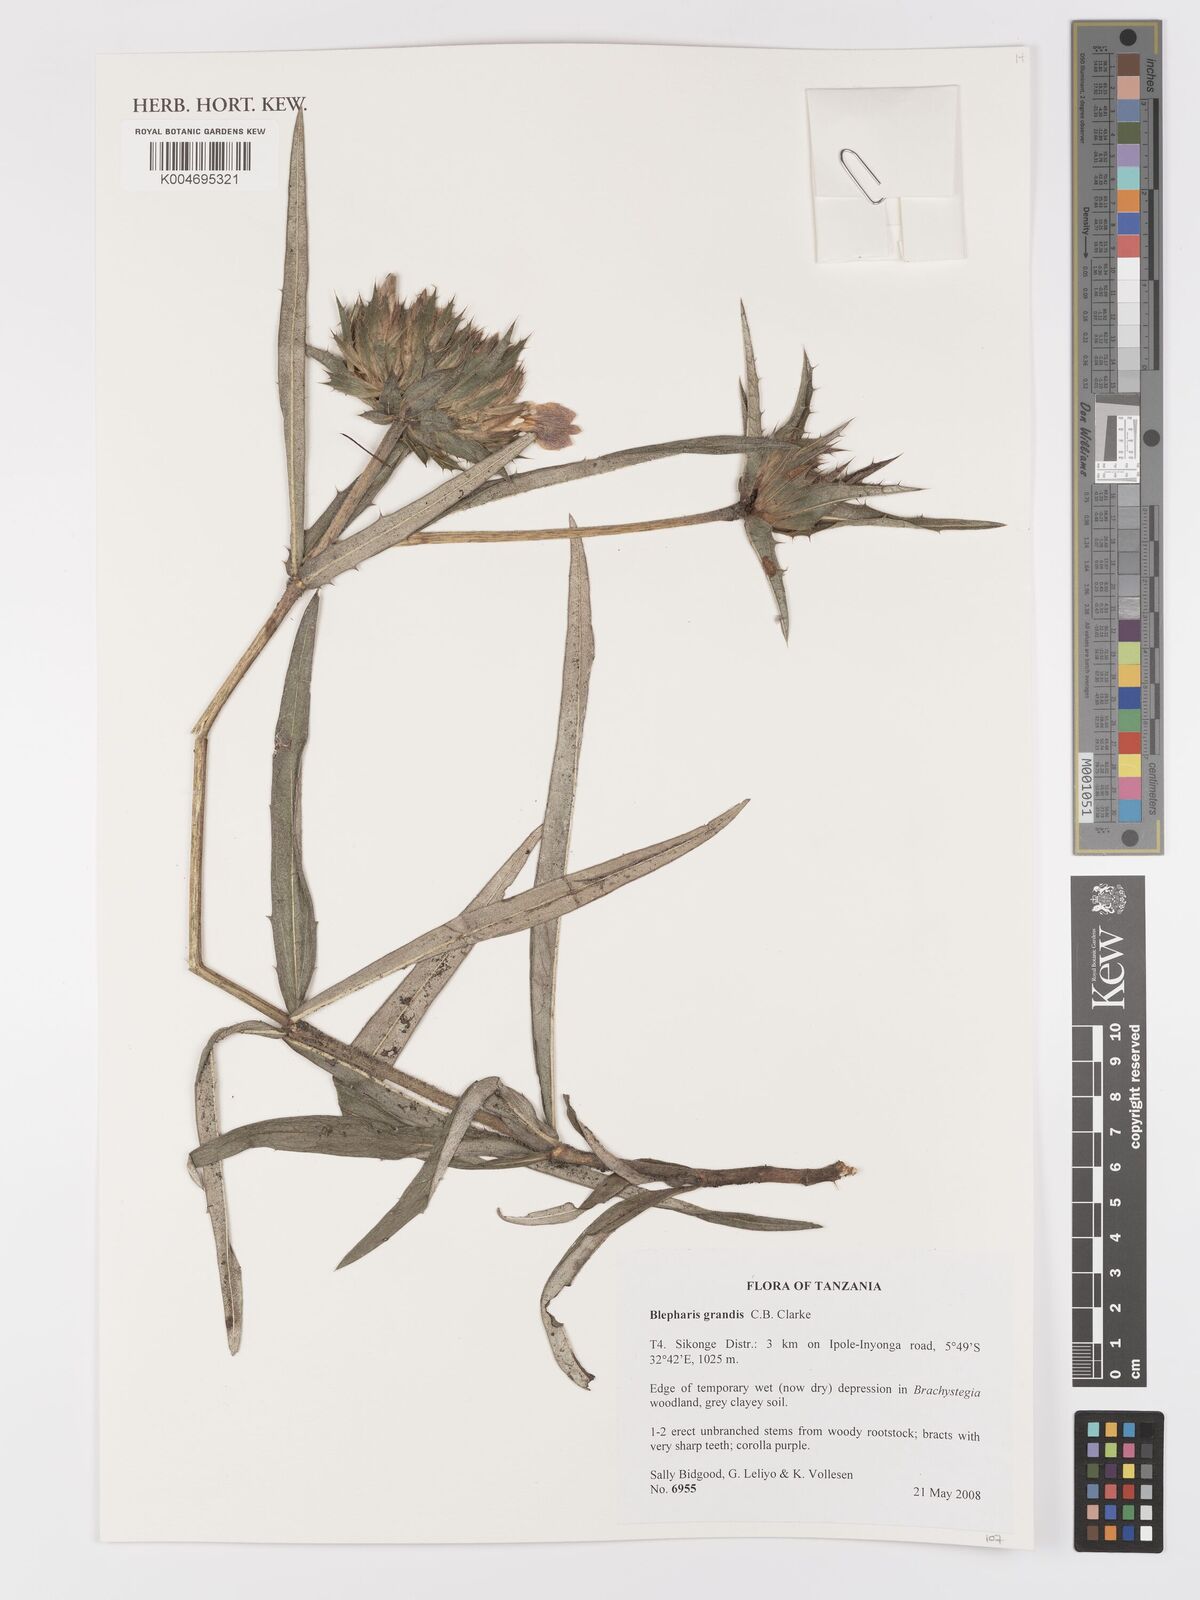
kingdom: Plantae
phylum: Tracheophyta
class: Magnoliopsida
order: Lamiales
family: Acanthaceae
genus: Blepharis
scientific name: Blepharis grandis
